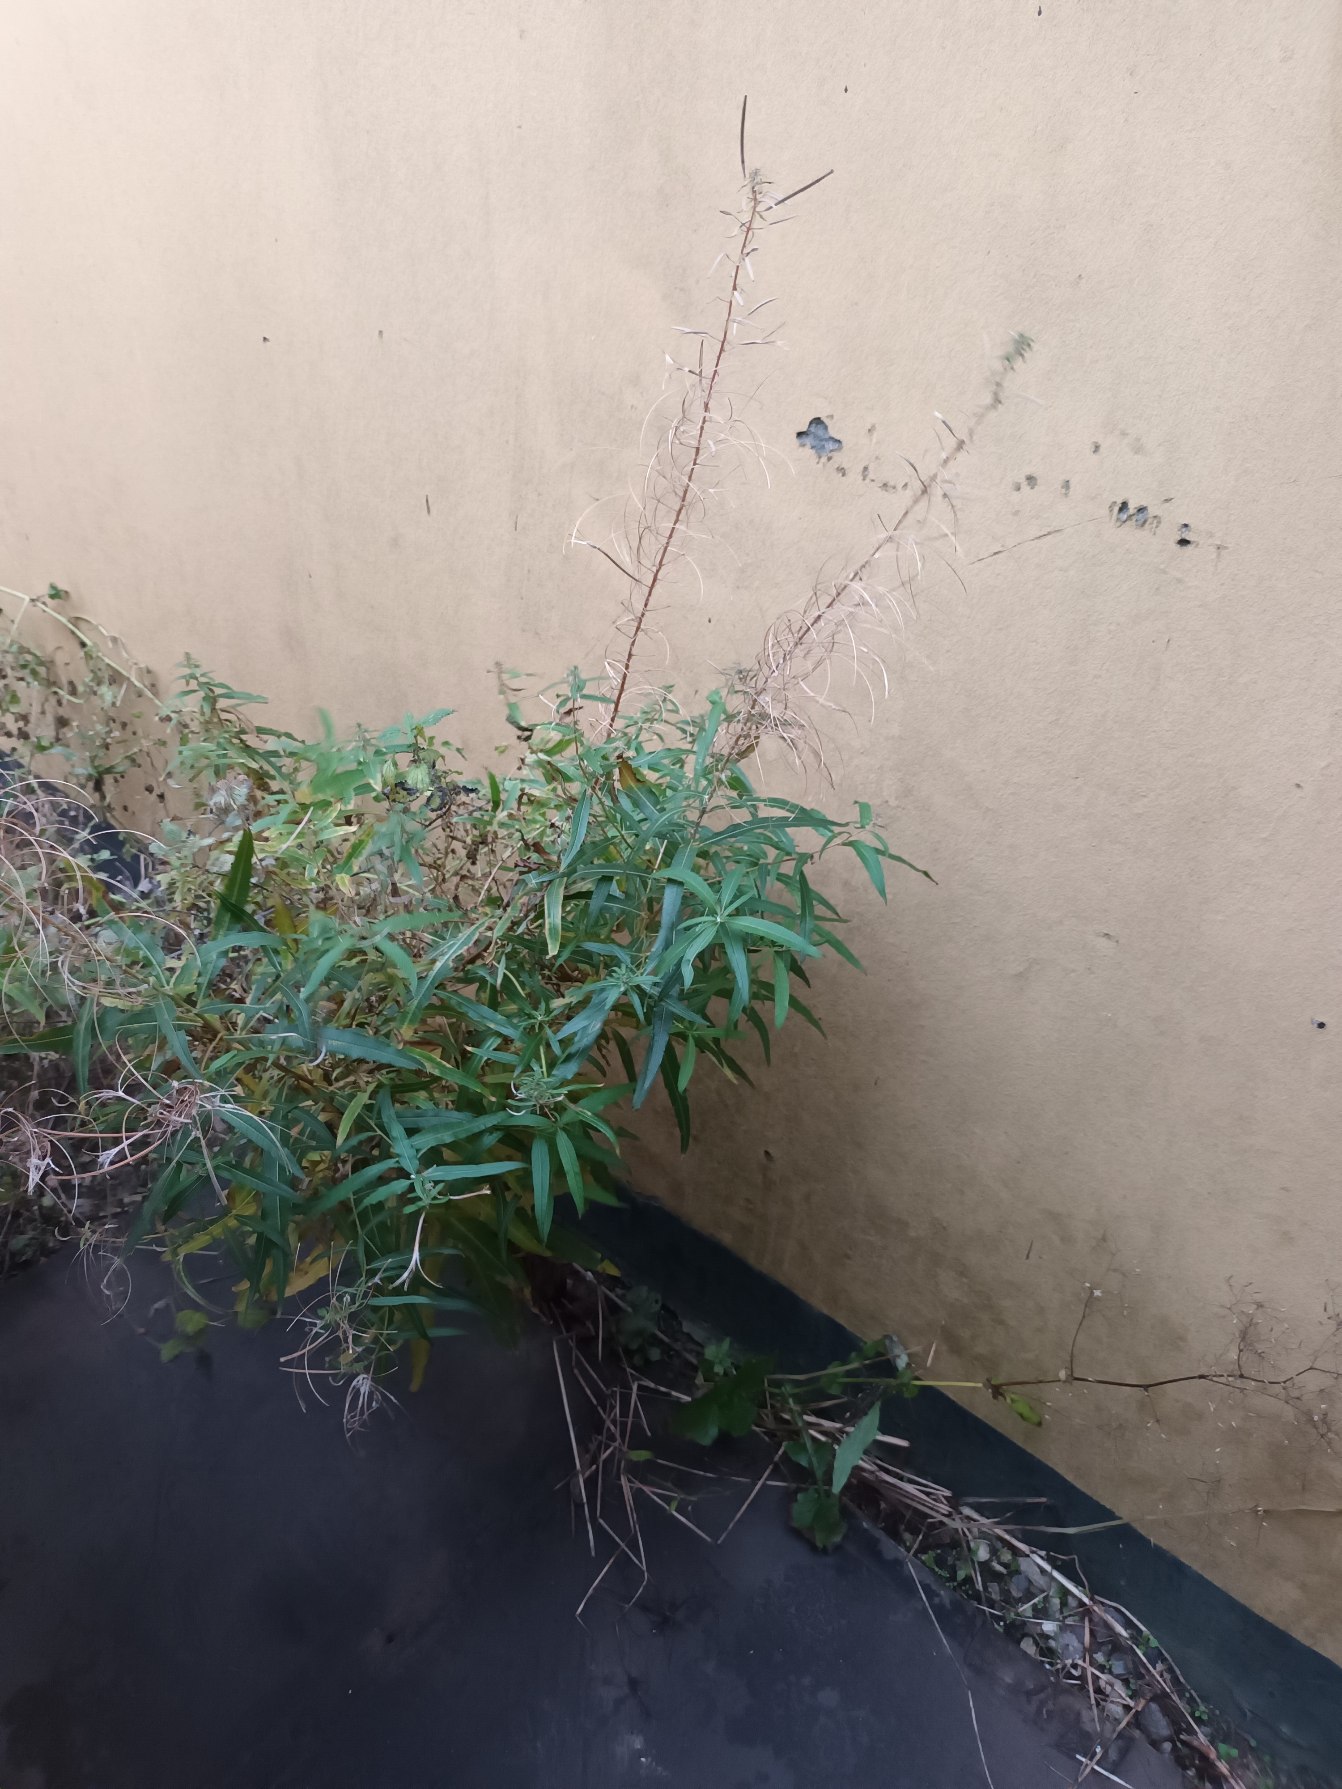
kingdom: Plantae
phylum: Tracheophyta
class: Magnoliopsida
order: Myrtales
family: Onagraceae
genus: Chamaenerion
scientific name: Chamaenerion angustifolium
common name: Gederams
